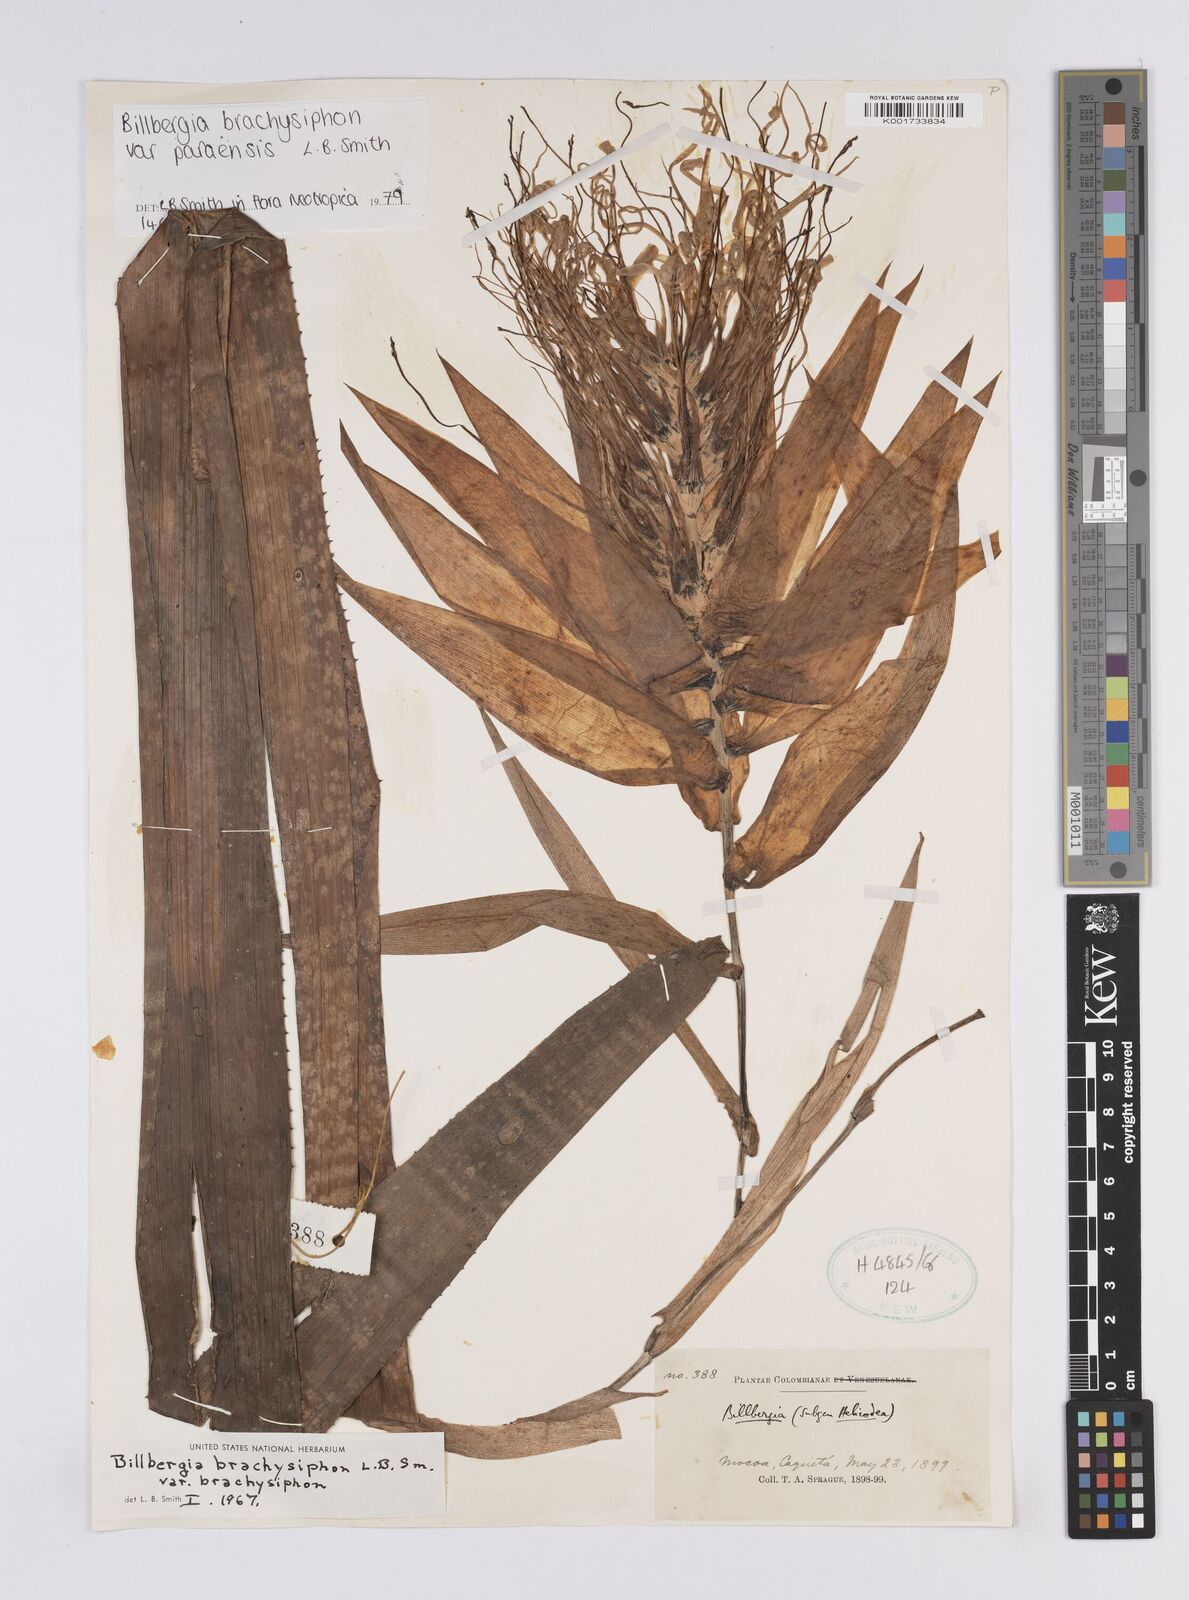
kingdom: Plantae
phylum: Tracheophyta
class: Liliopsida
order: Poales
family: Bromeliaceae
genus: Billbergia
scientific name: Billbergia brachysiphon
